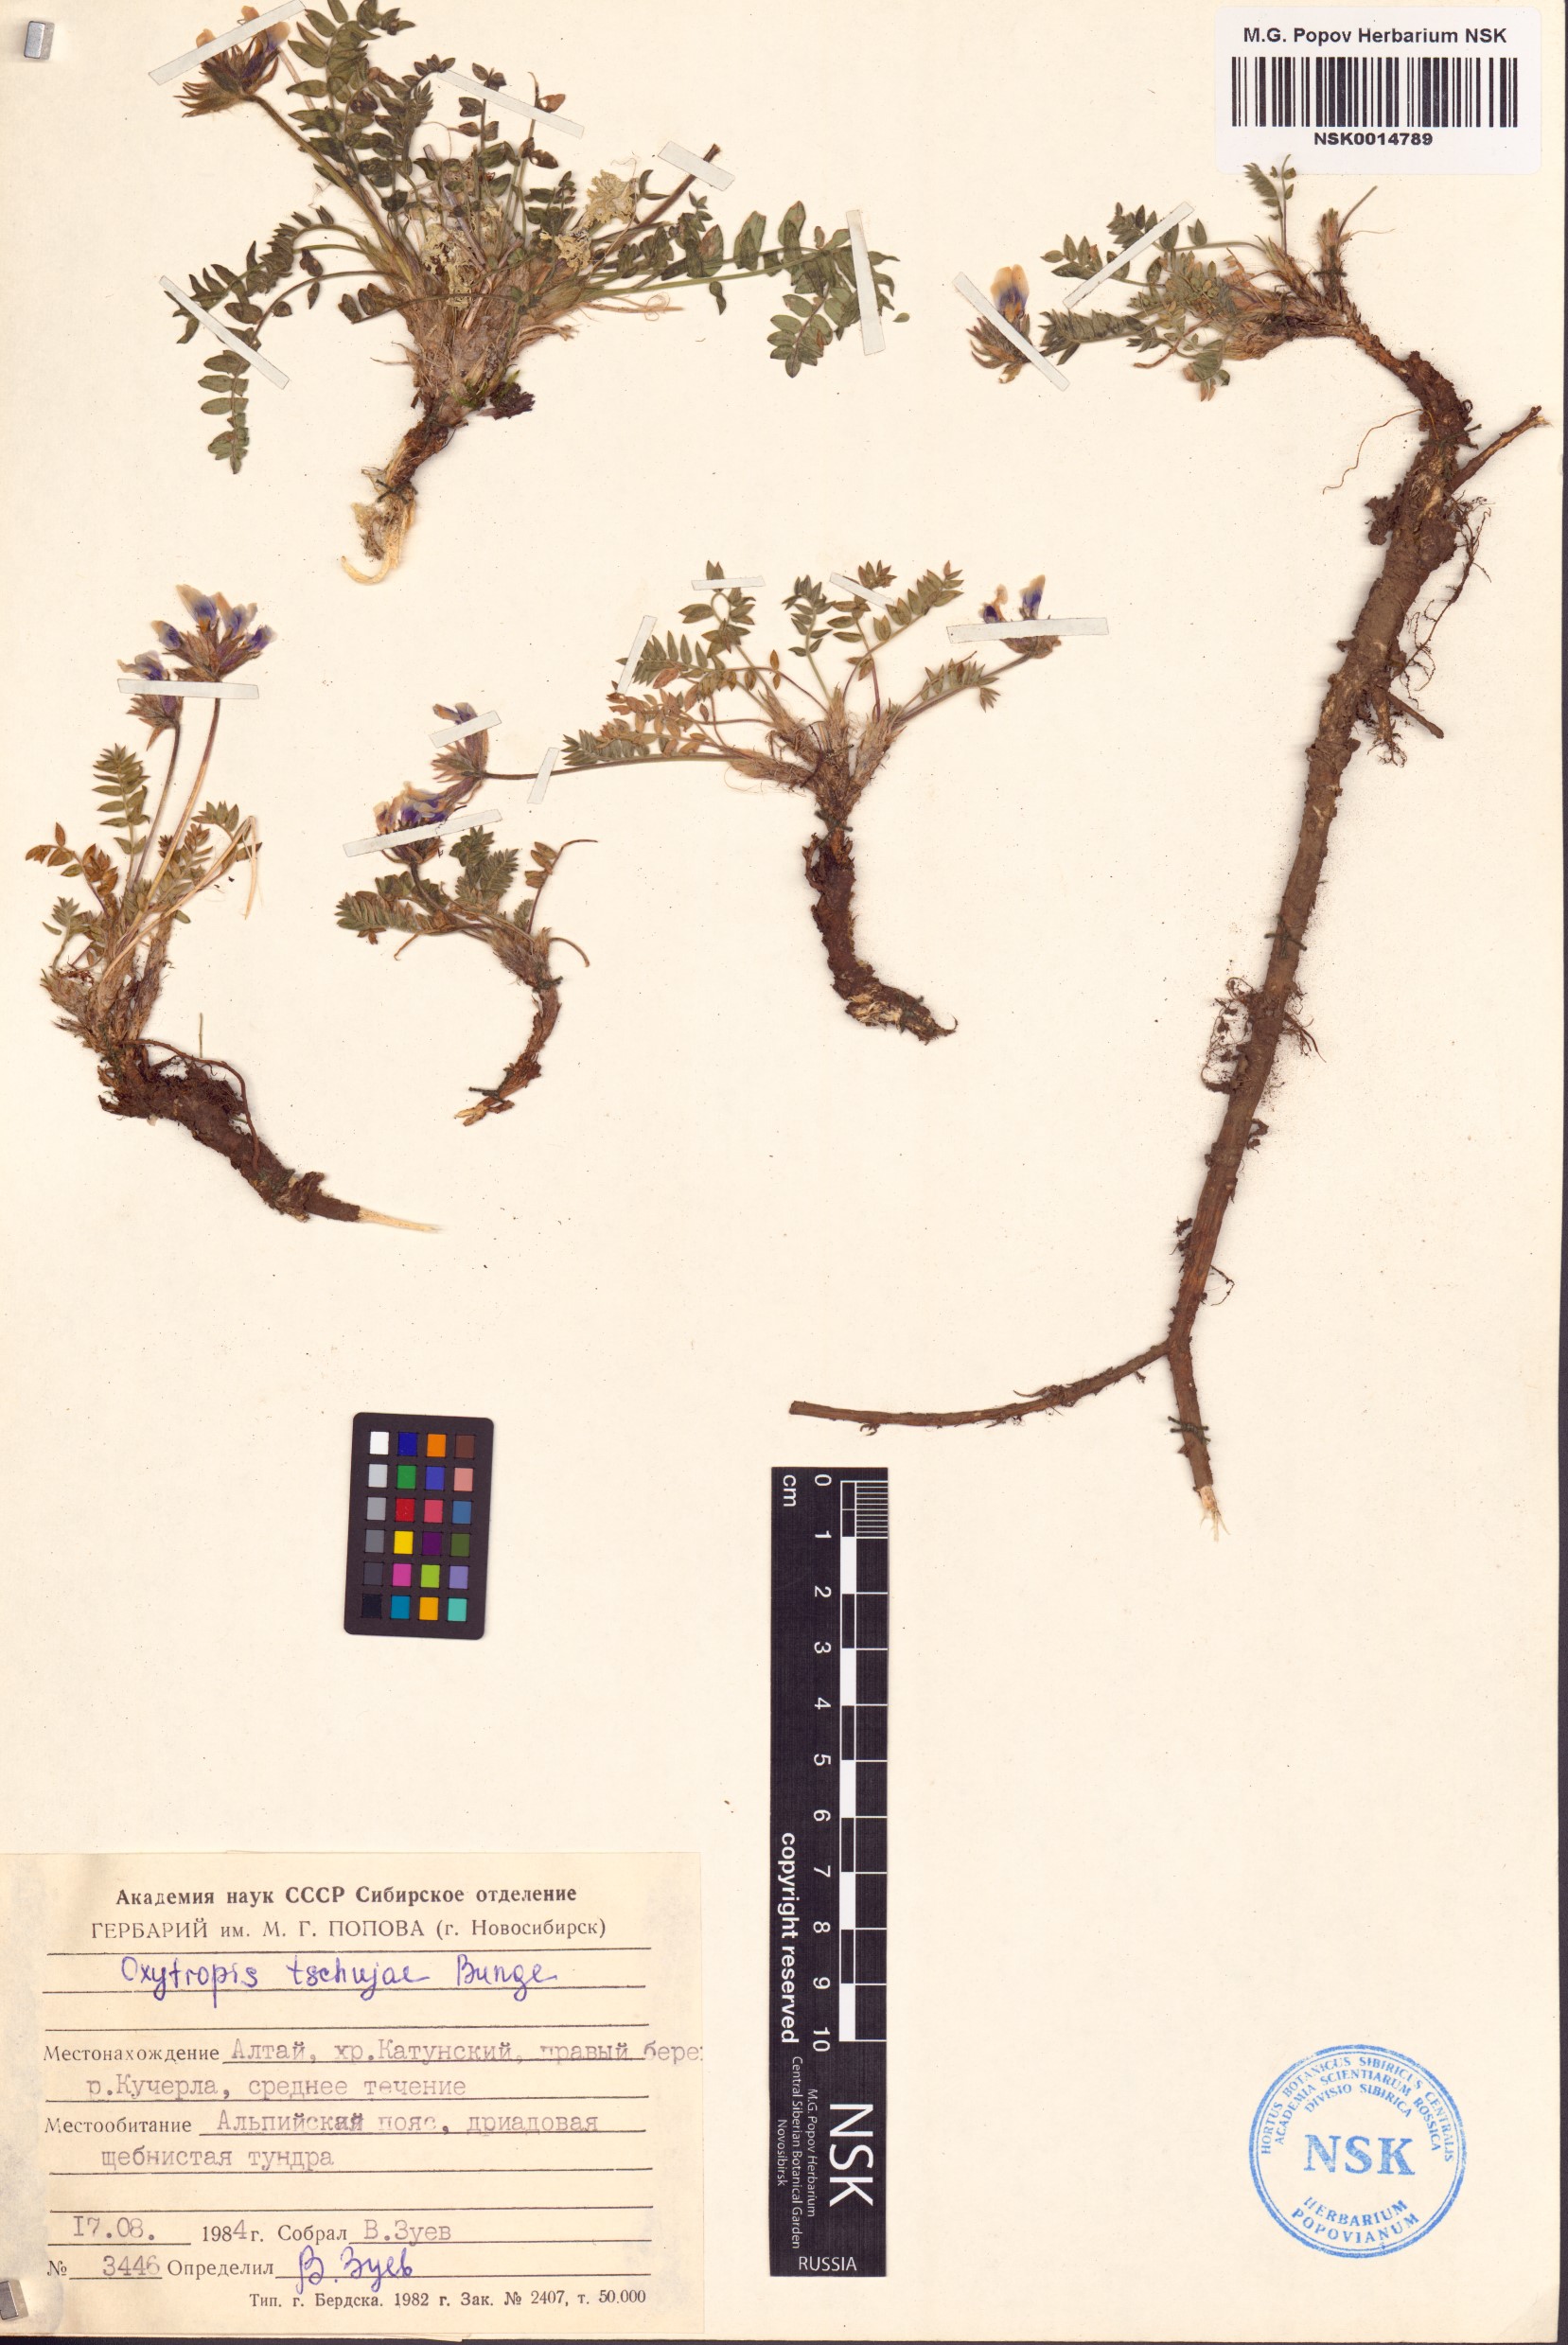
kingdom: Plantae
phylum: Tracheophyta
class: Magnoliopsida
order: Fabales
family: Fabaceae
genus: Oxytropis
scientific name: Oxytropis tschujae
